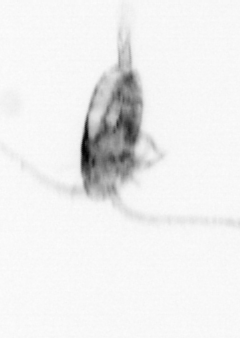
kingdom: Animalia
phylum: Arthropoda
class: Copepoda
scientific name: Copepoda
